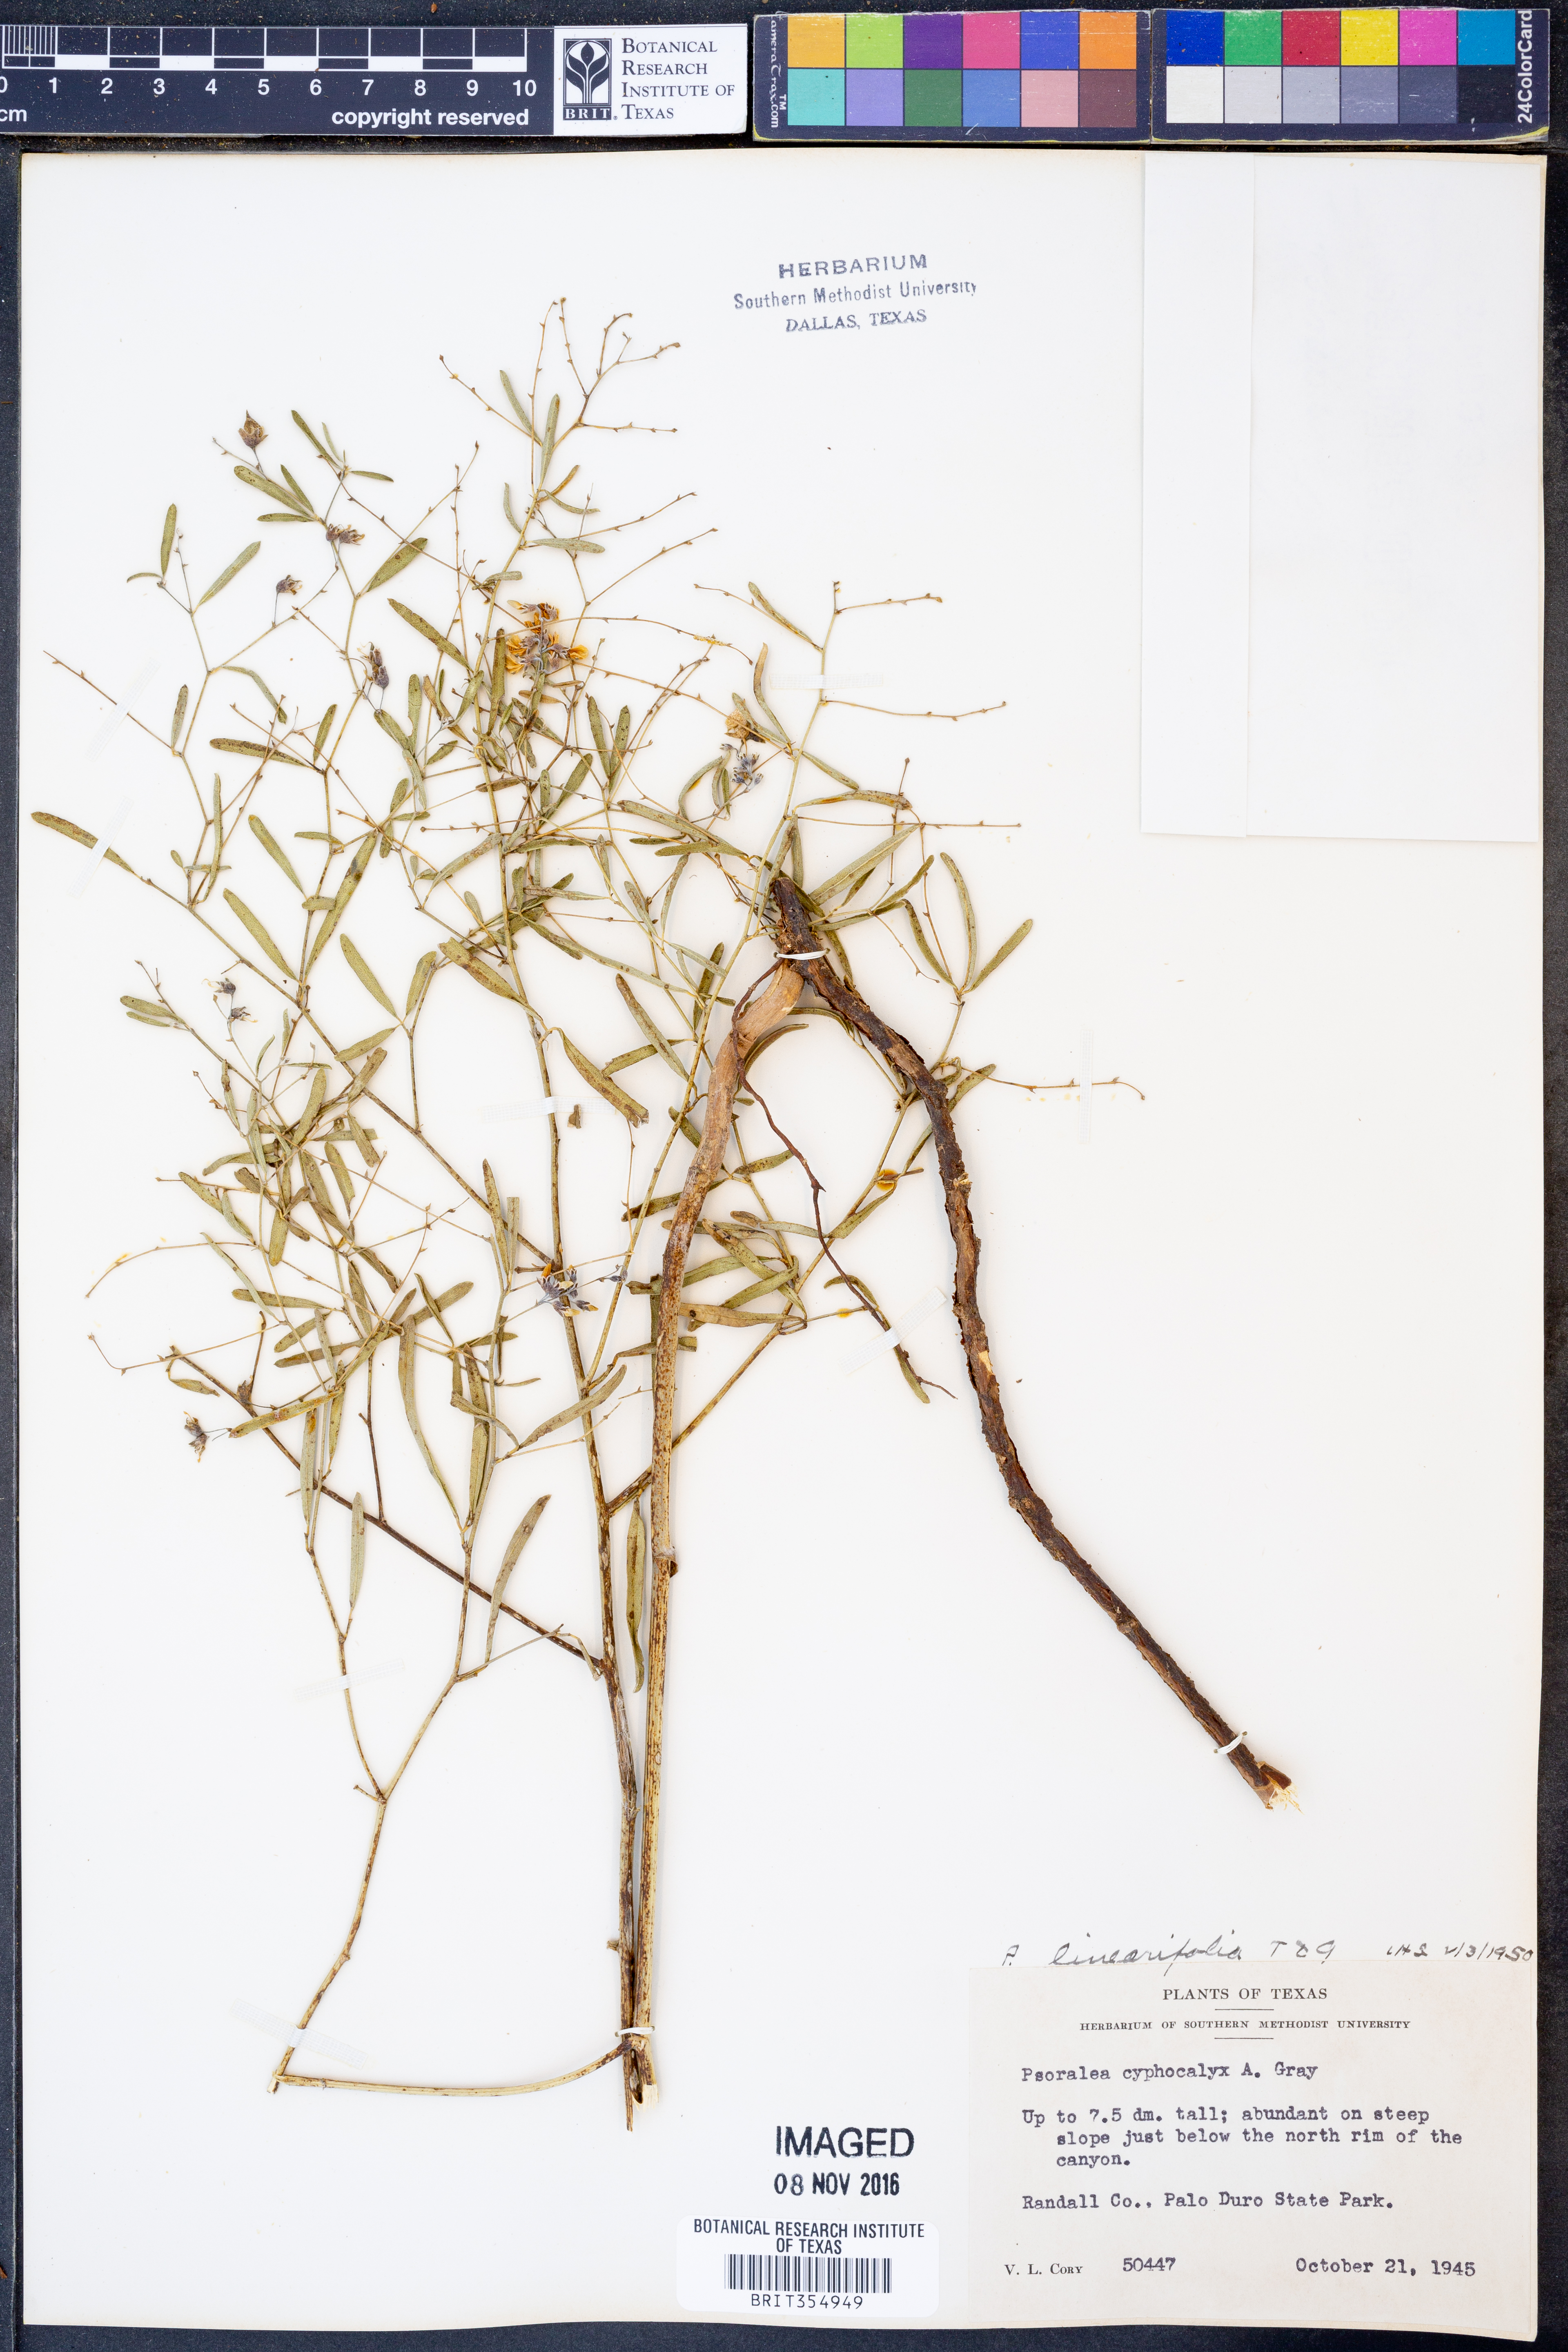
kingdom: Plantae
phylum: Tracheophyta
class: Magnoliopsida
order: Fabales
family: Fabaceae
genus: Pediomelum
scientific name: Pediomelum linearifolium
